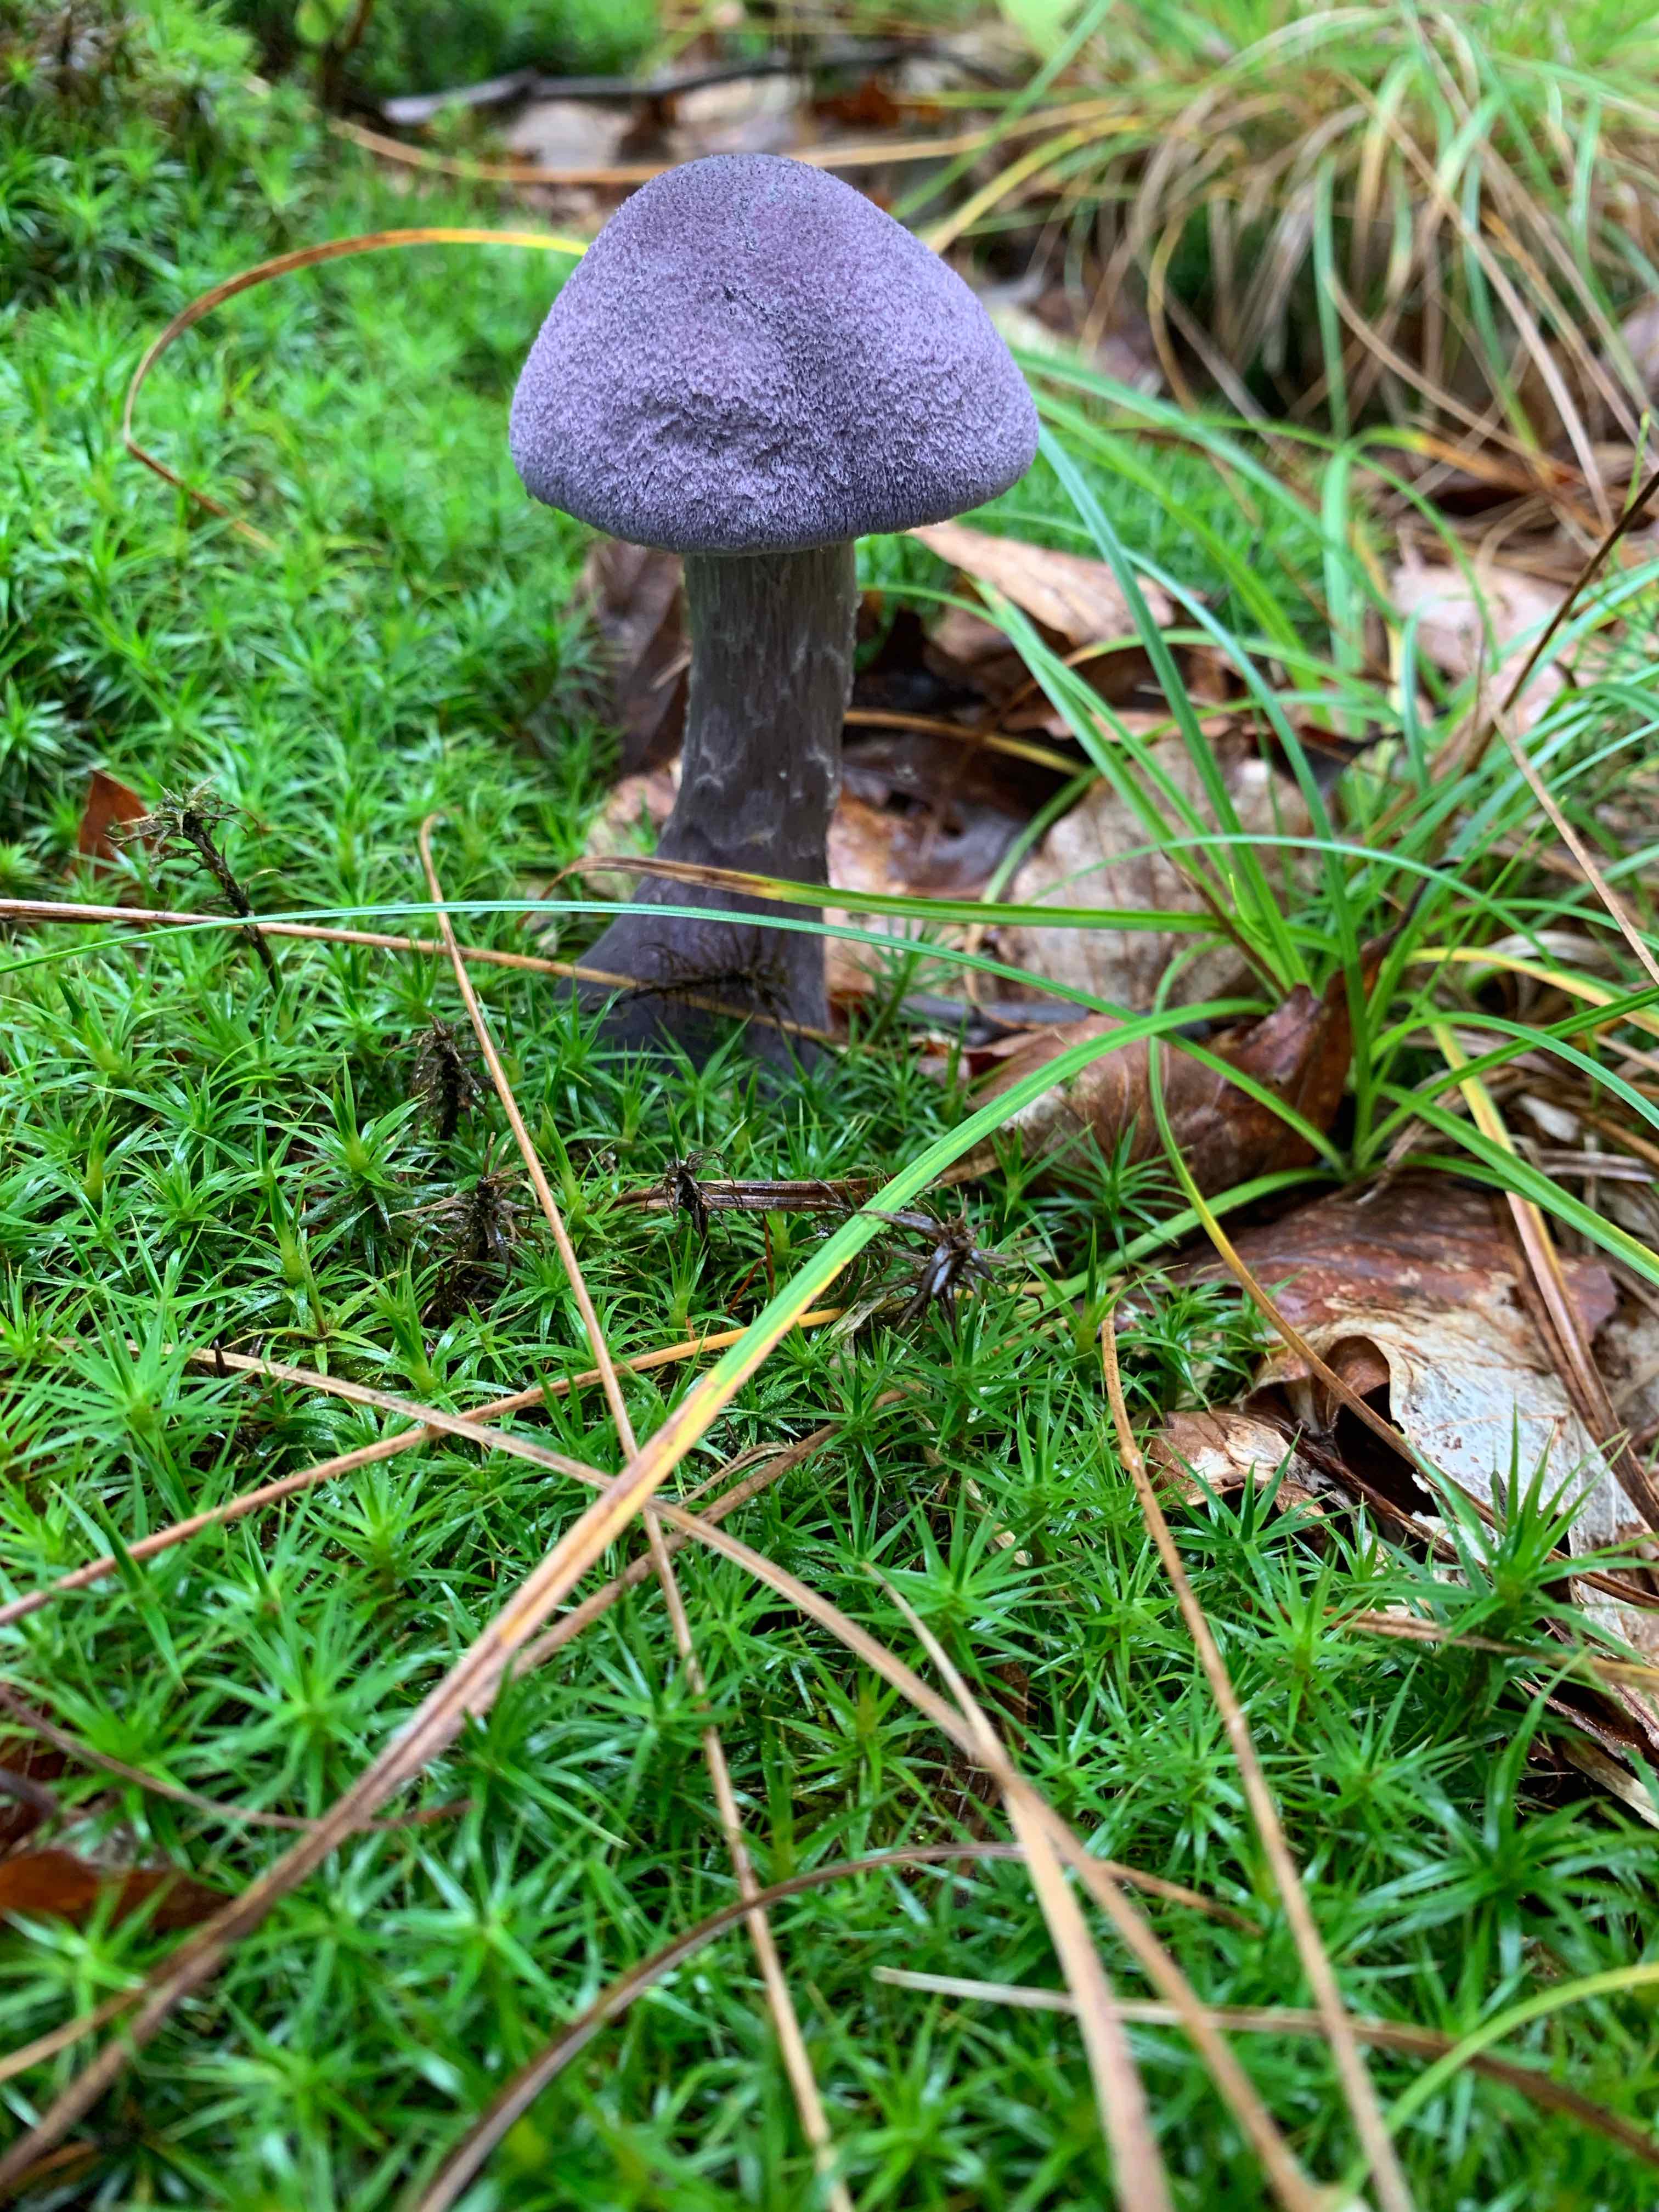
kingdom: Fungi
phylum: Basidiomycota
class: Agaricomycetes
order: Agaricales
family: Cortinariaceae
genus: Cortinarius
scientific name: Cortinarius violaceus
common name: mørkviolet slørhat
